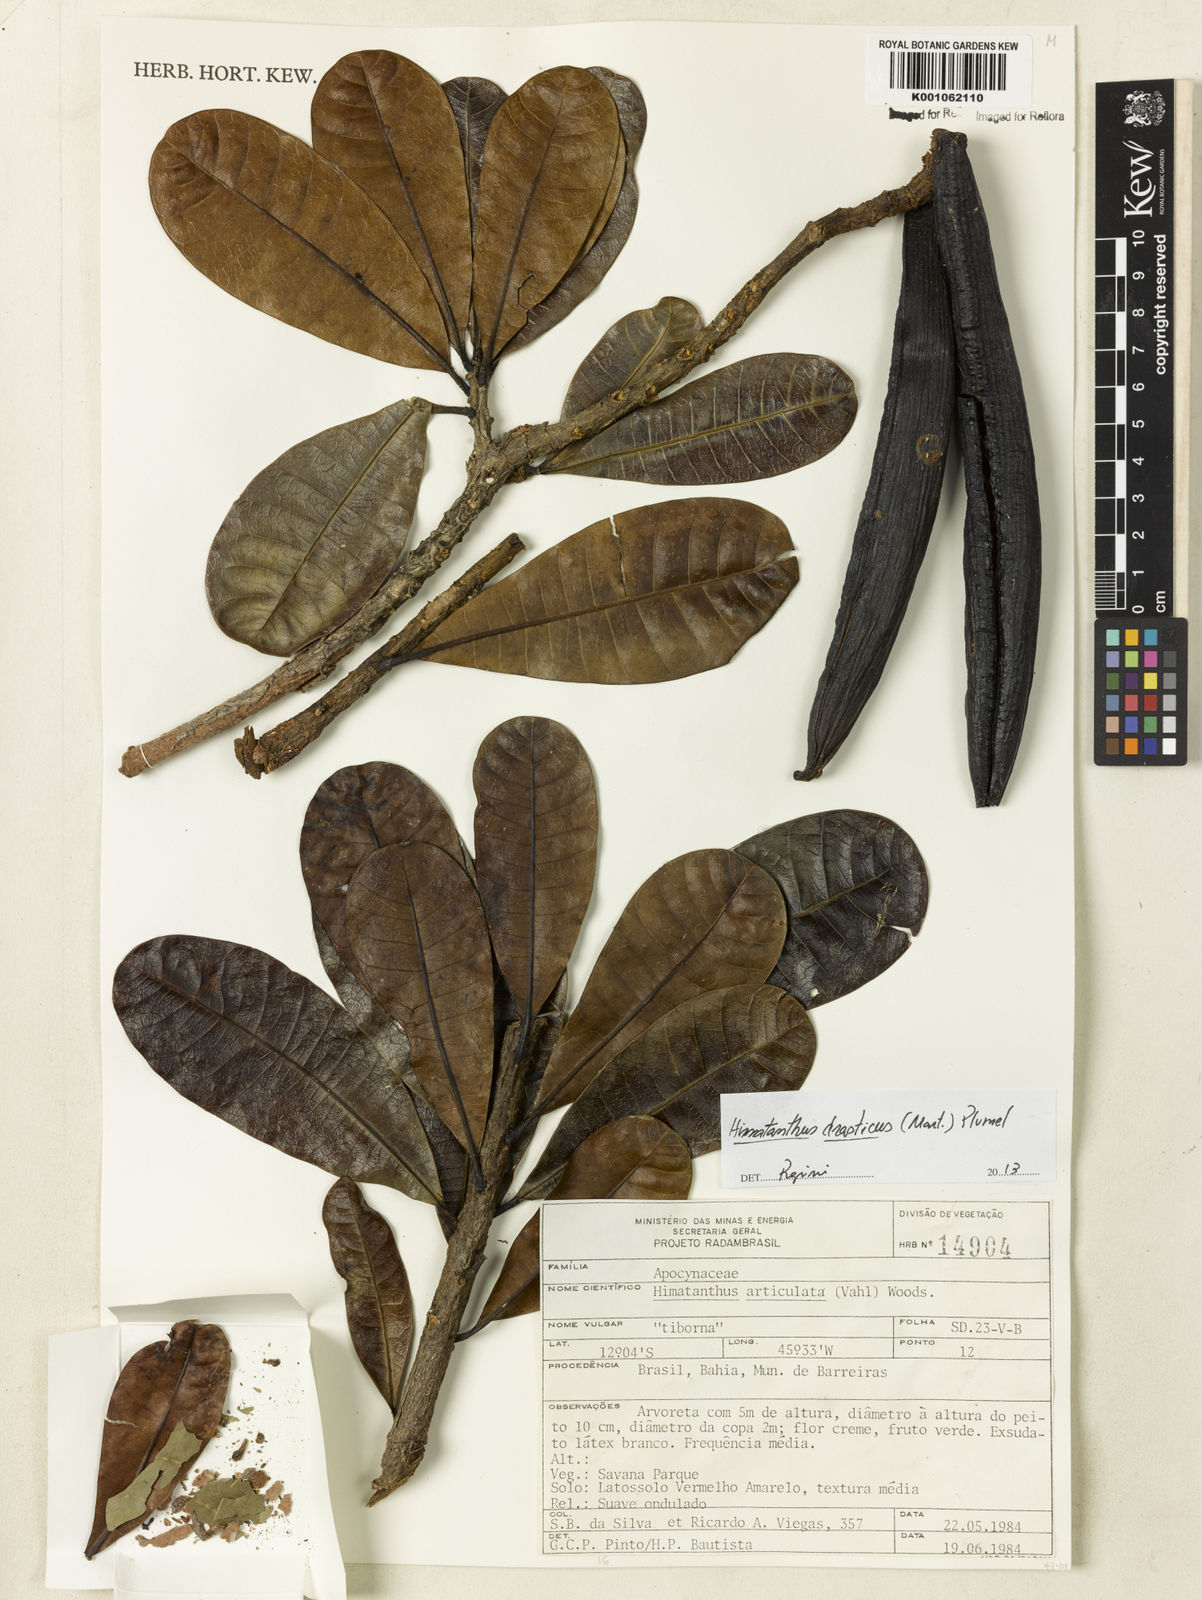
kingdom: Plantae
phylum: Tracheophyta
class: Magnoliopsida
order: Gentianales
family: Apocynaceae
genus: Himatanthus
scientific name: Himatanthus drasticus
